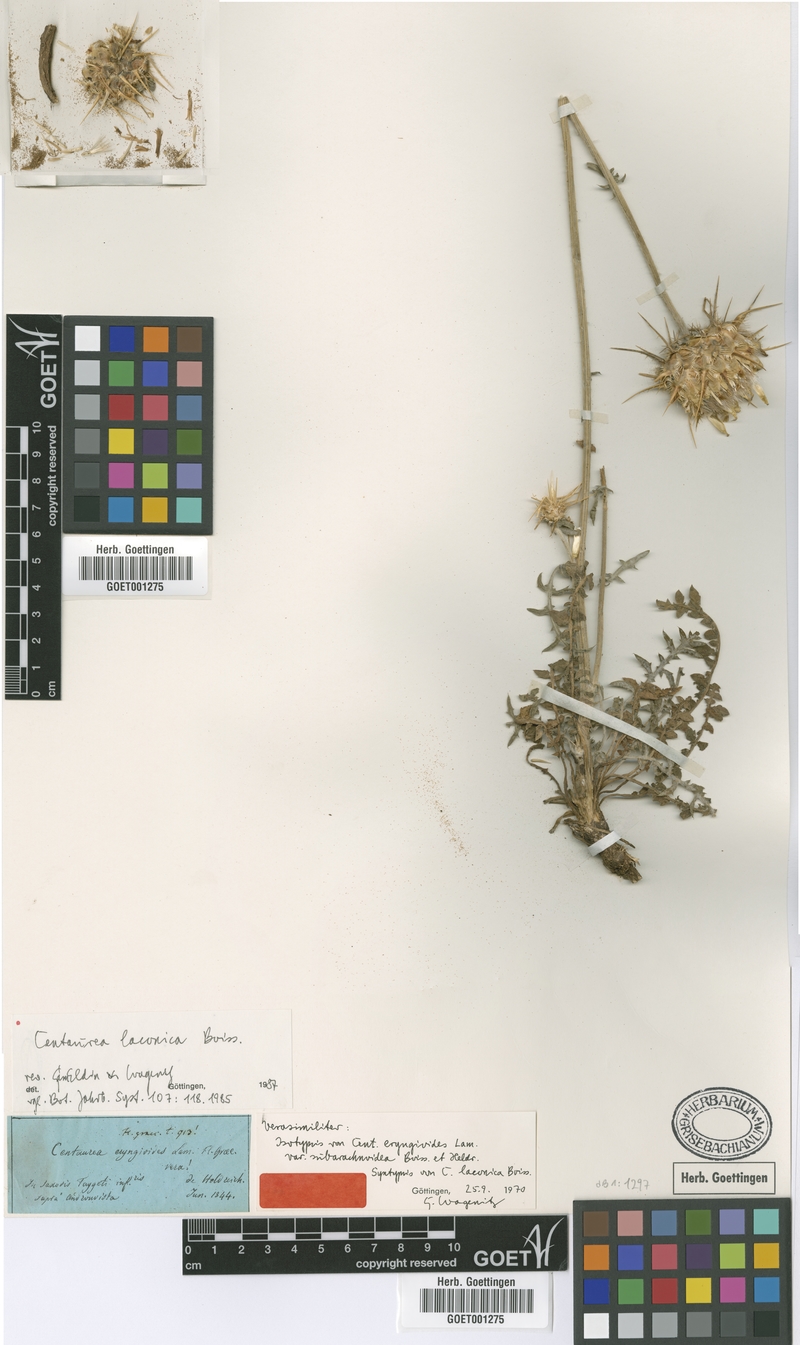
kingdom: Plantae
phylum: Tracheophyta
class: Magnoliopsida
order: Asterales
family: Asteraceae
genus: Centaurea
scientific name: Centaurea laconica
